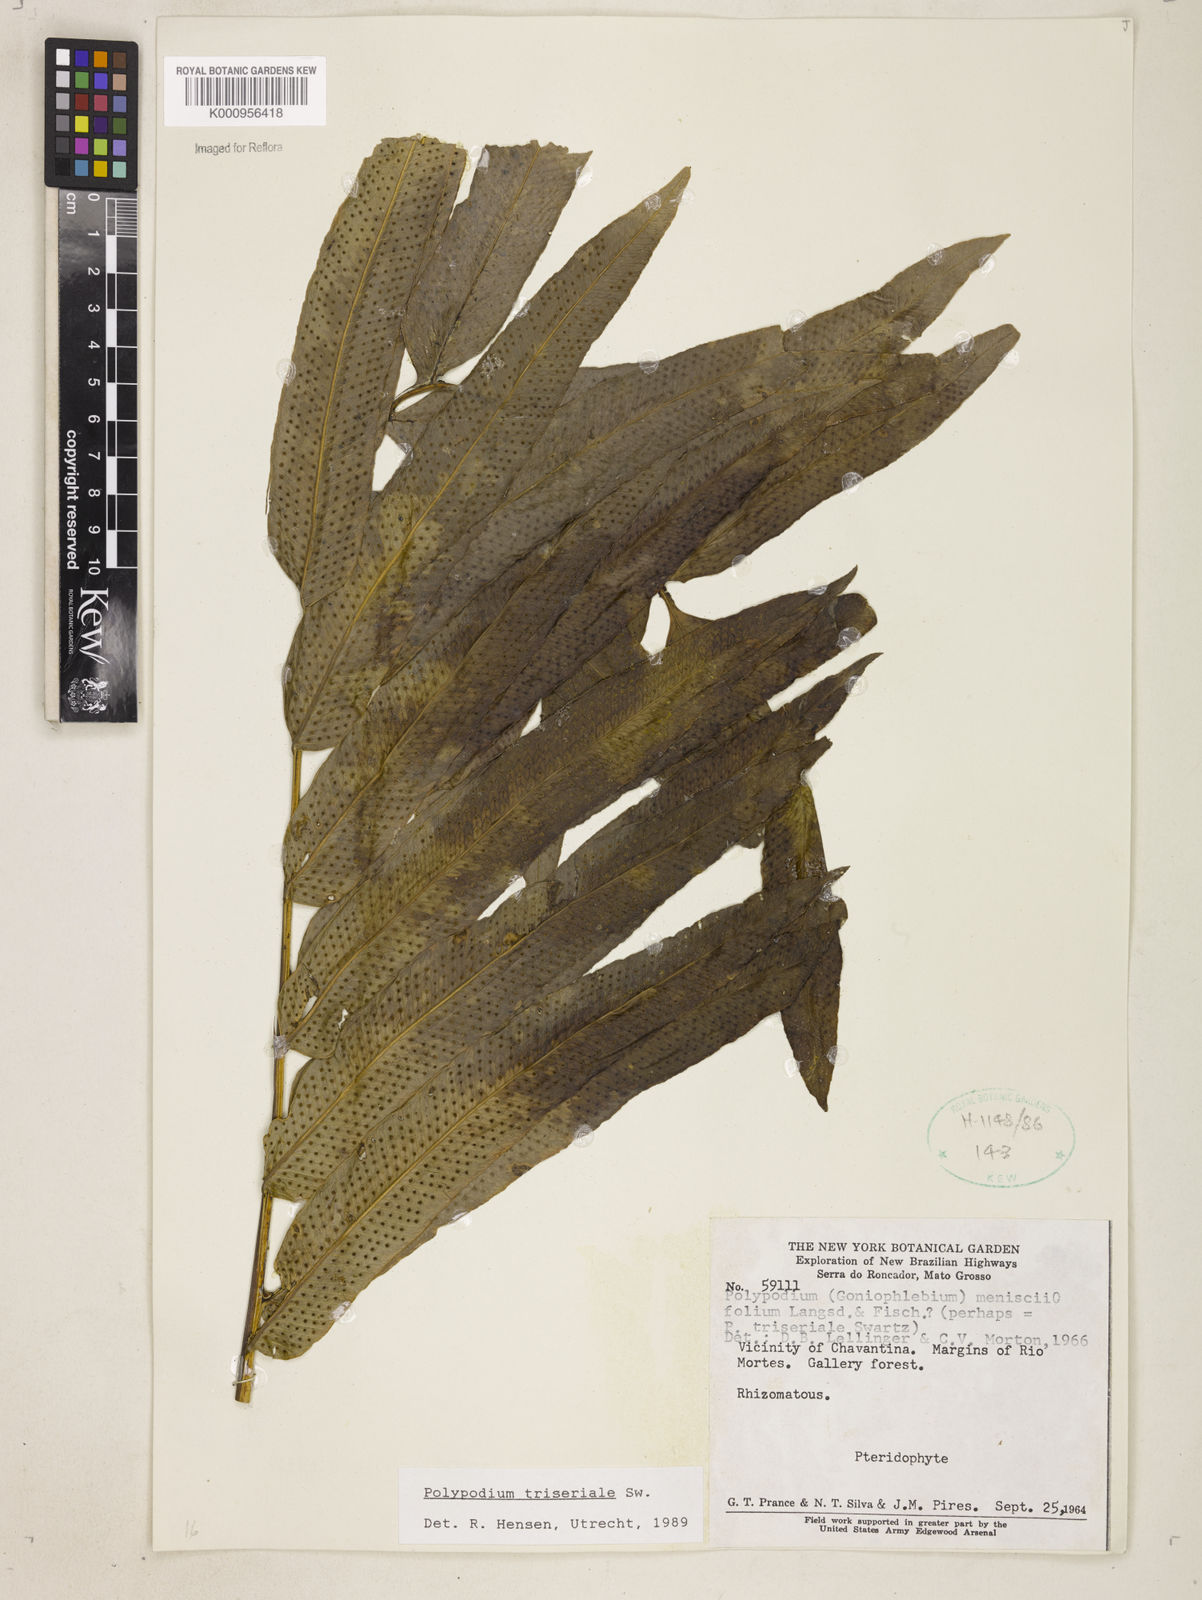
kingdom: Plantae
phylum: Tracheophyta
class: Polypodiopsida
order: Polypodiales
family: Polypodiaceae
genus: Serpocaulon
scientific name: Serpocaulon triseriale
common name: Angle-vein fern
